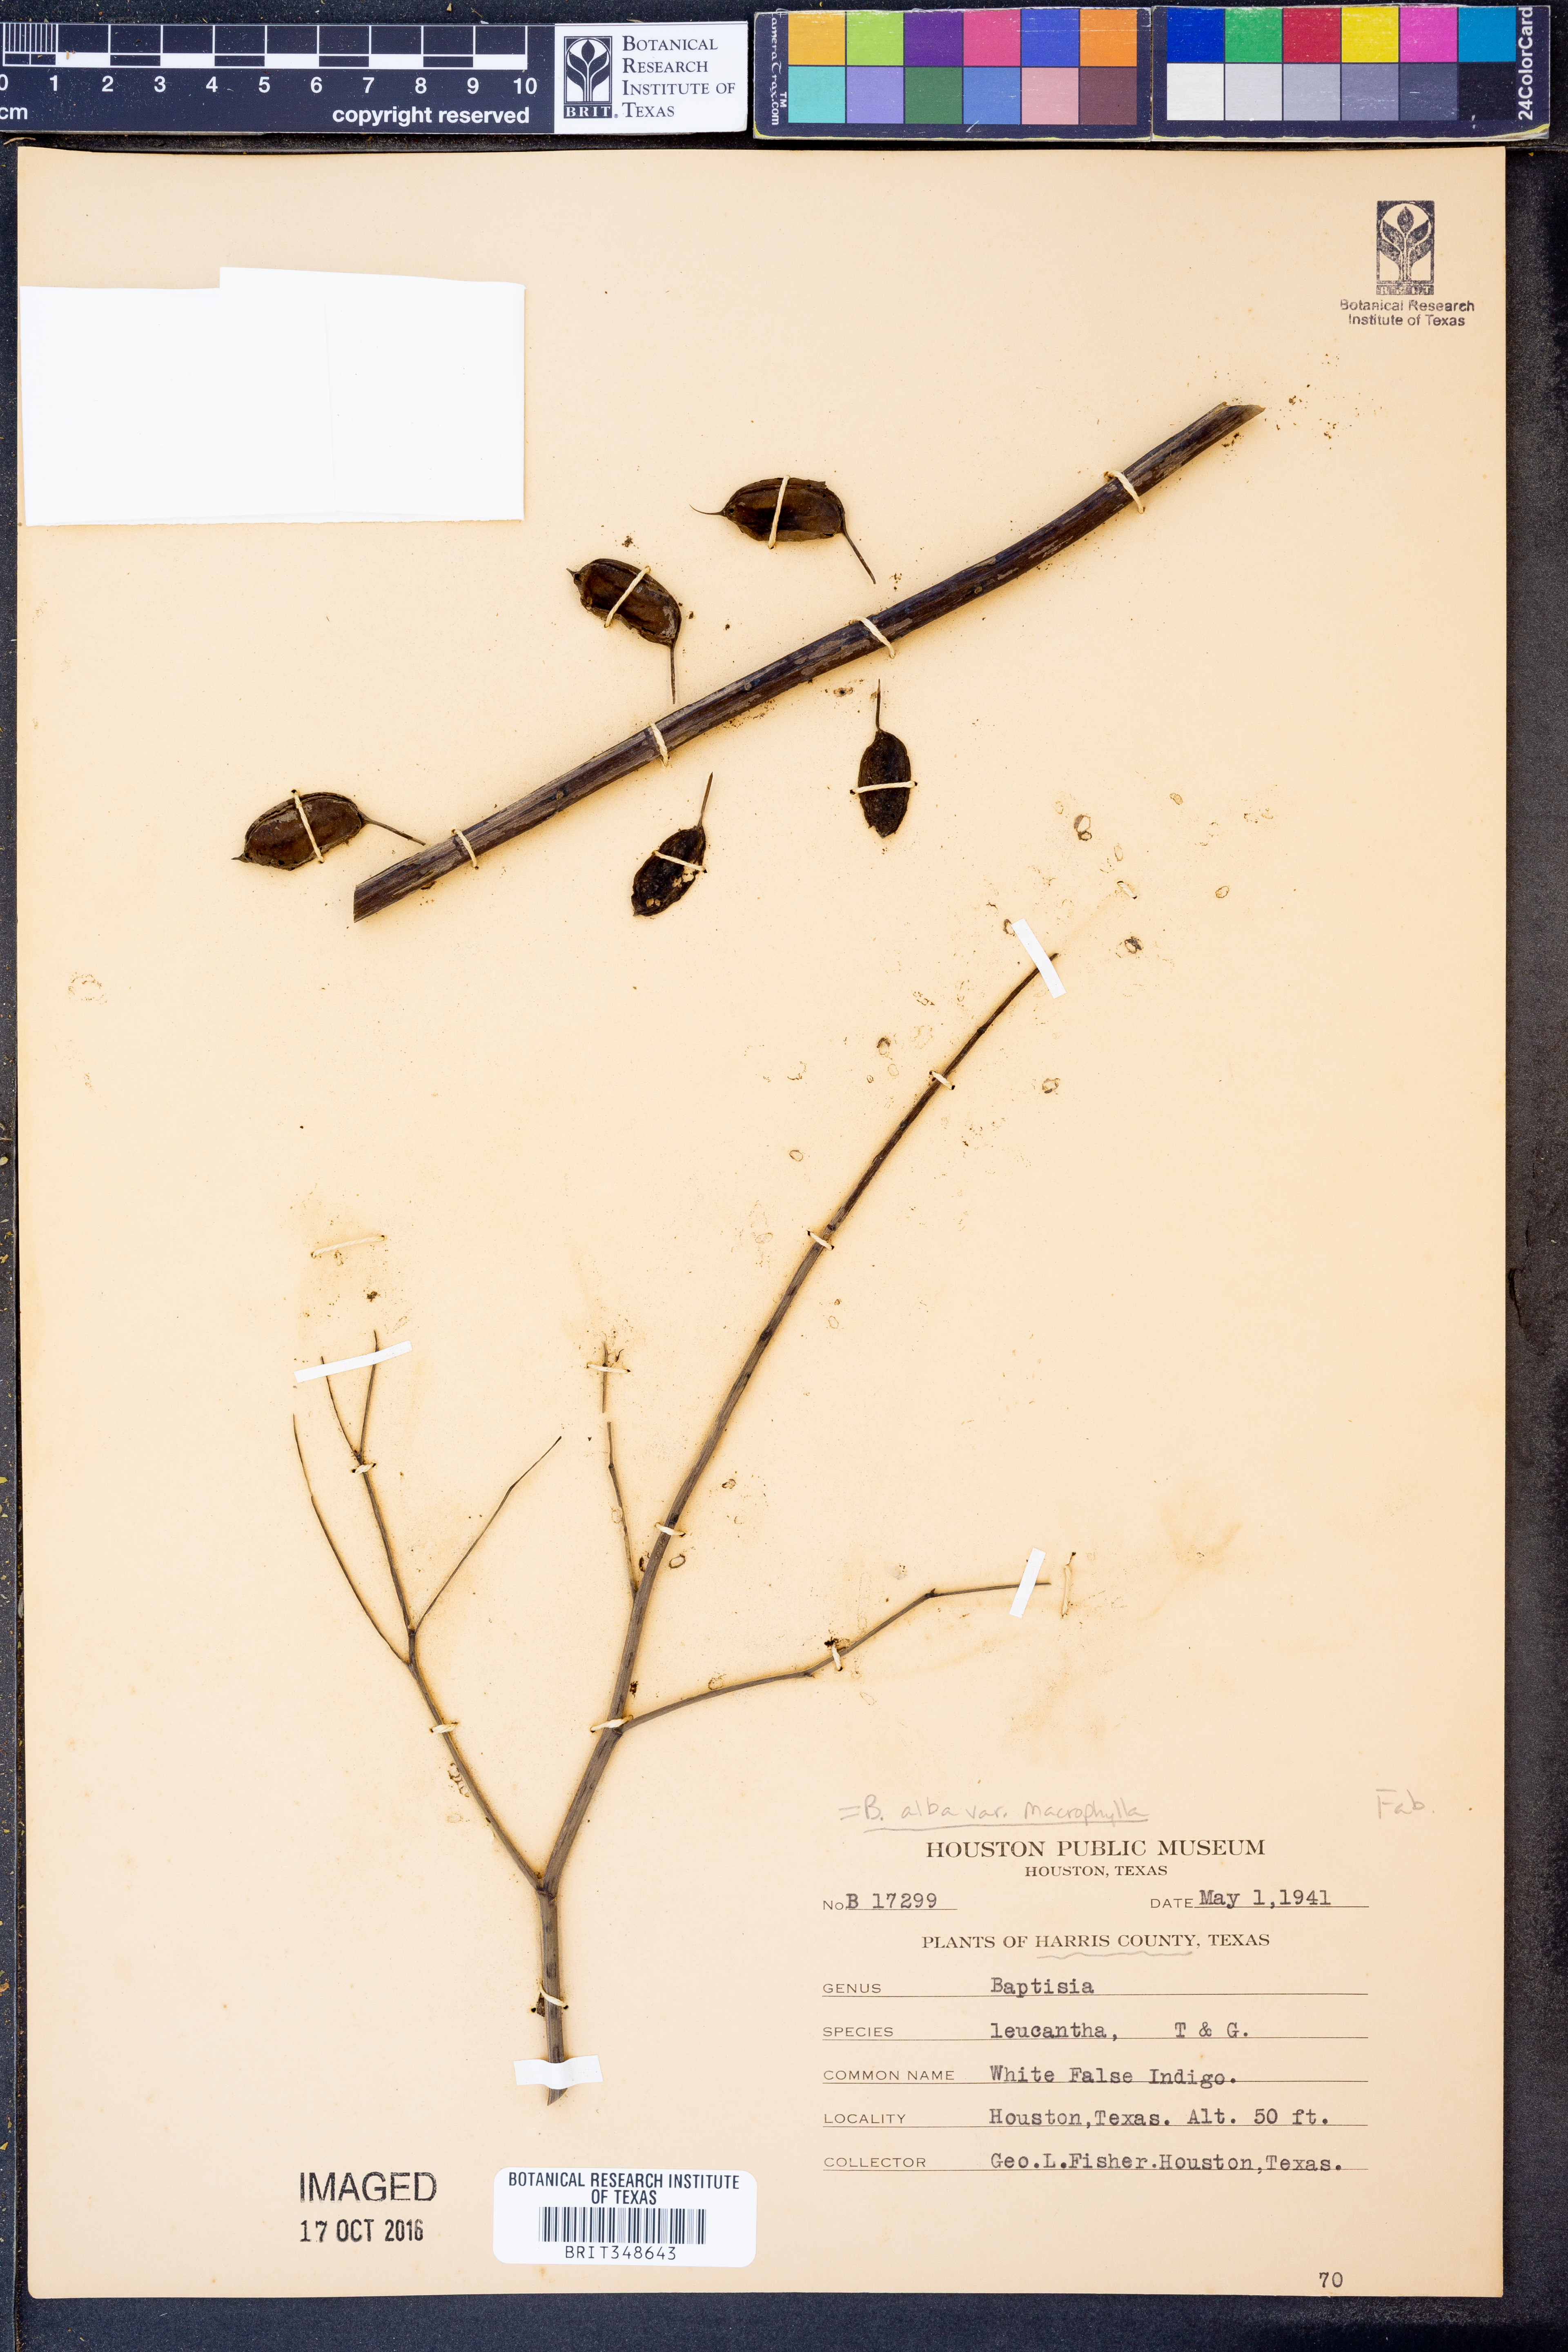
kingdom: Plantae
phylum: Tracheophyta
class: Magnoliopsida
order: Fabales
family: Fabaceae
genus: Baptisia
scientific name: Baptisia alba
